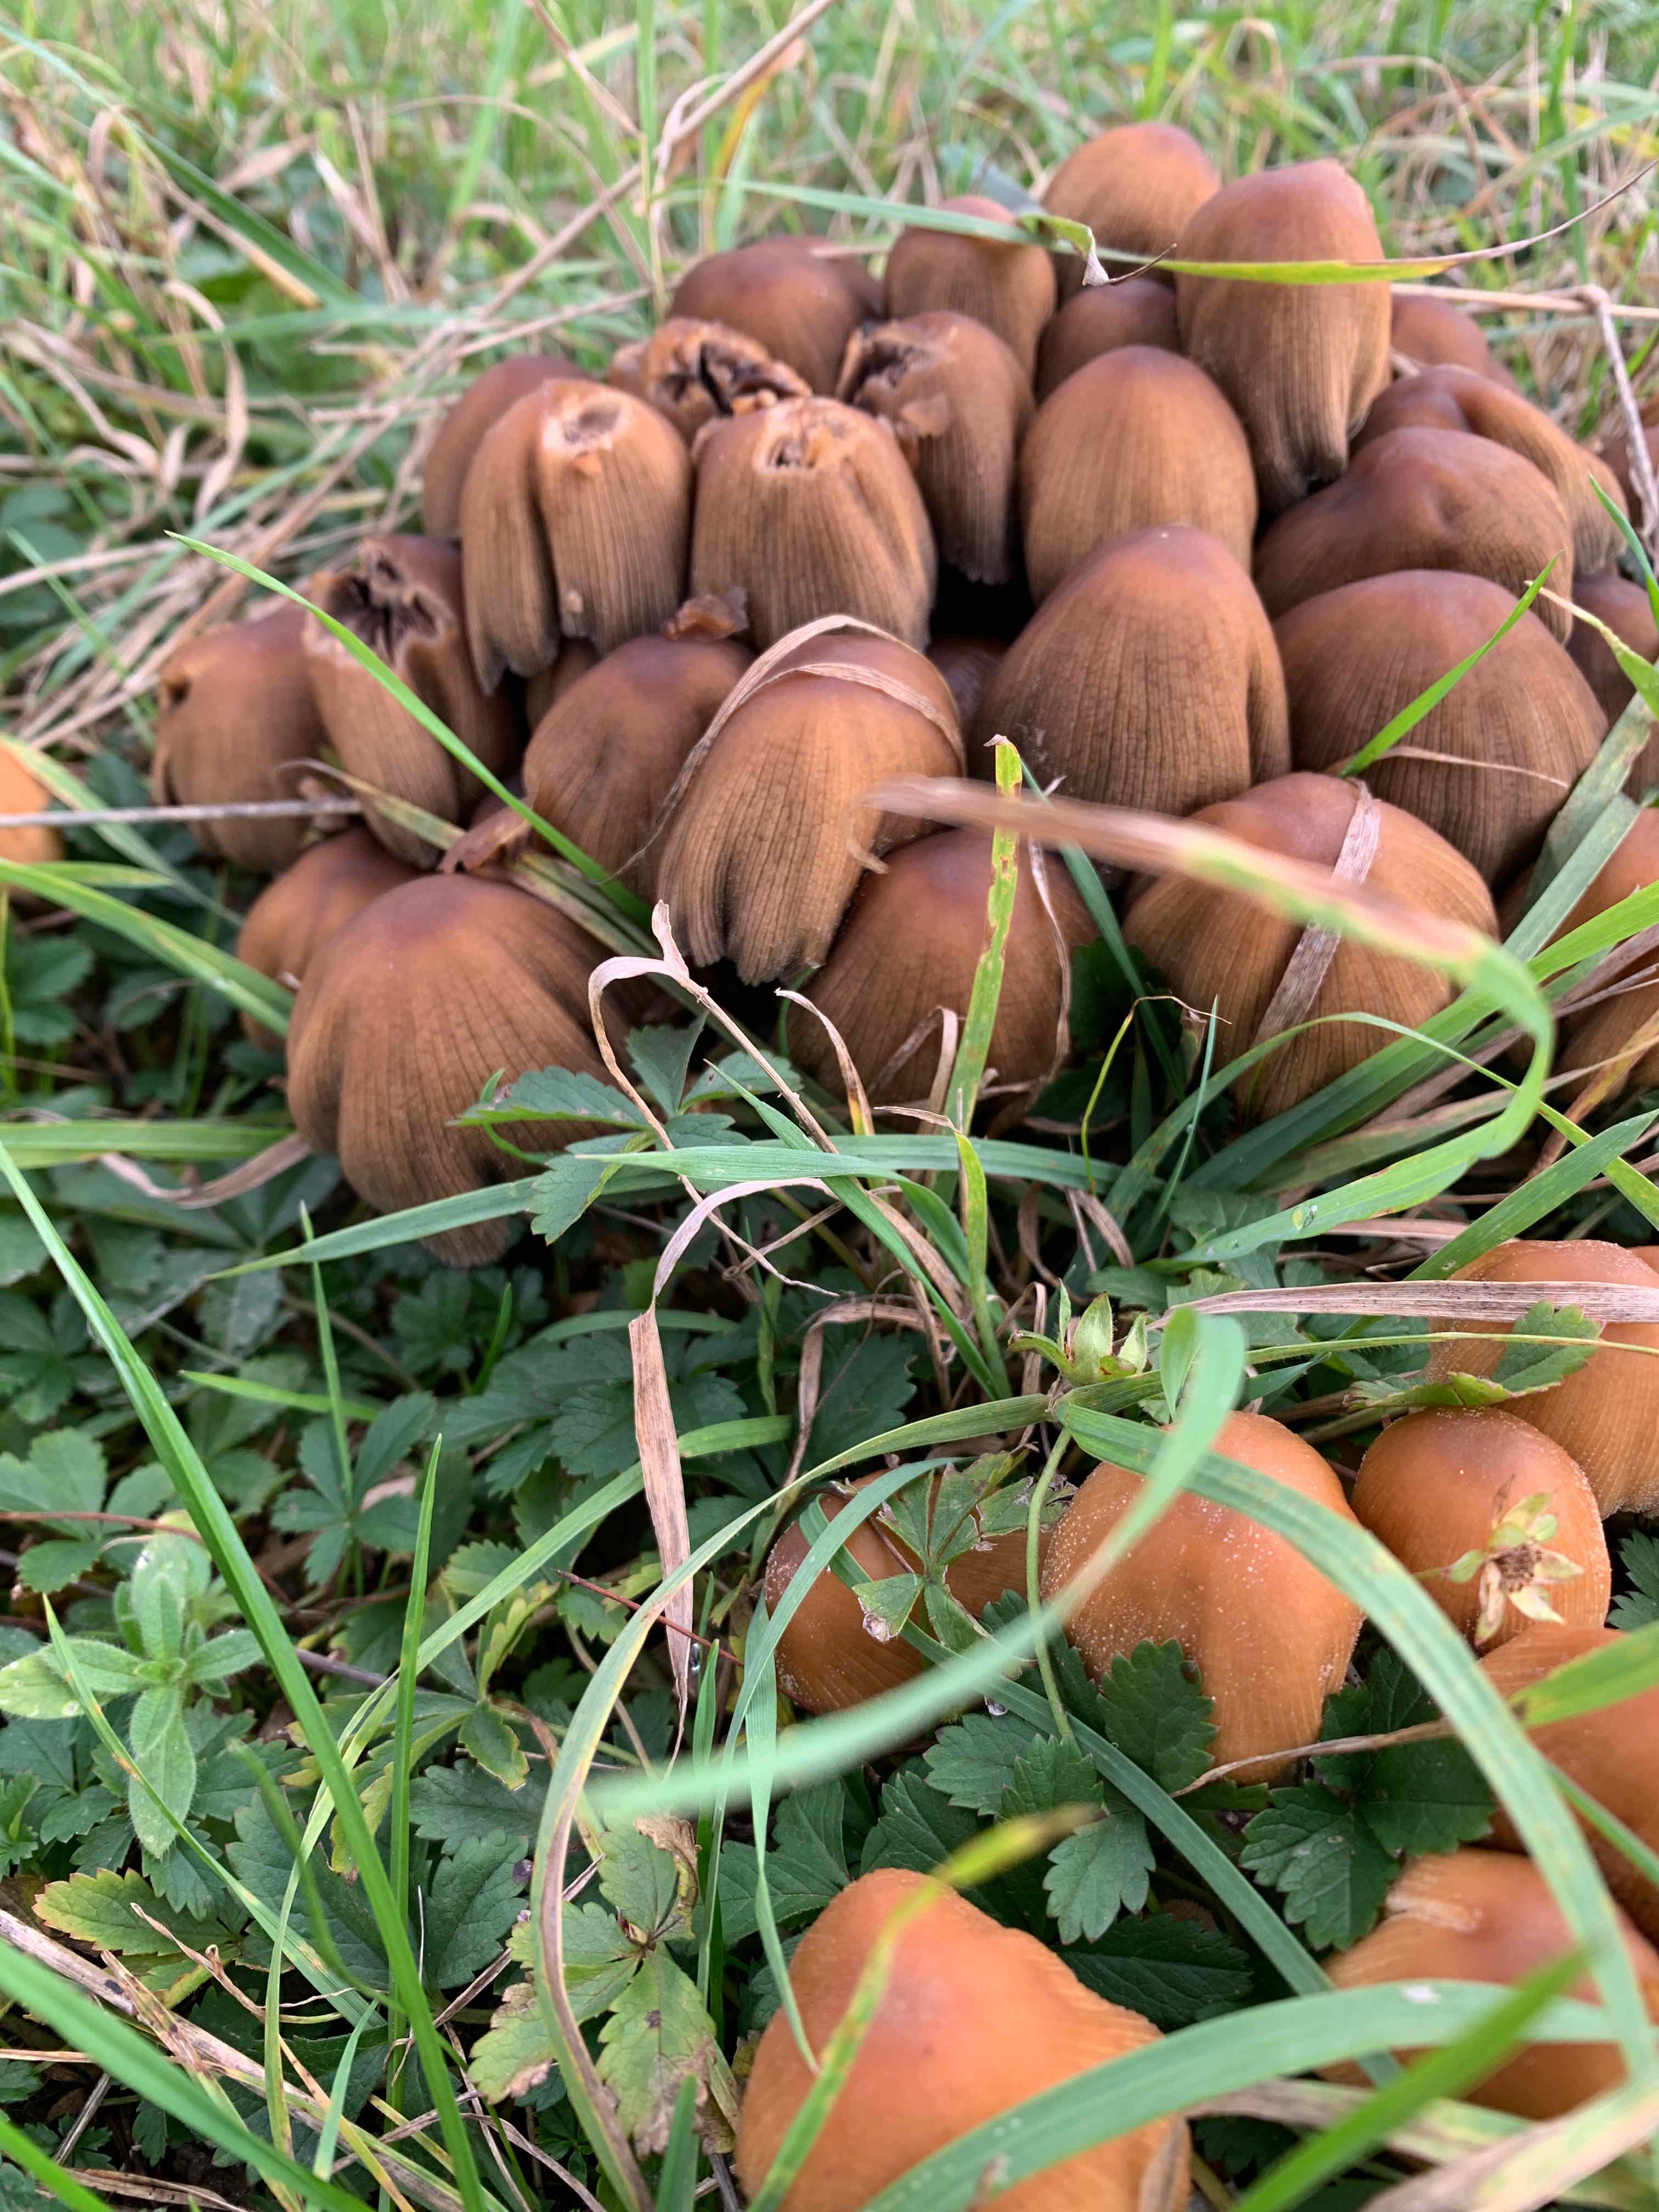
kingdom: Fungi
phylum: Basidiomycota
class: Agaricomycetes
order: Agaricales
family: Psathyrellaceae
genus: Coprinellus
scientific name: Coprinellus micaceus
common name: glimmer-blækhat
